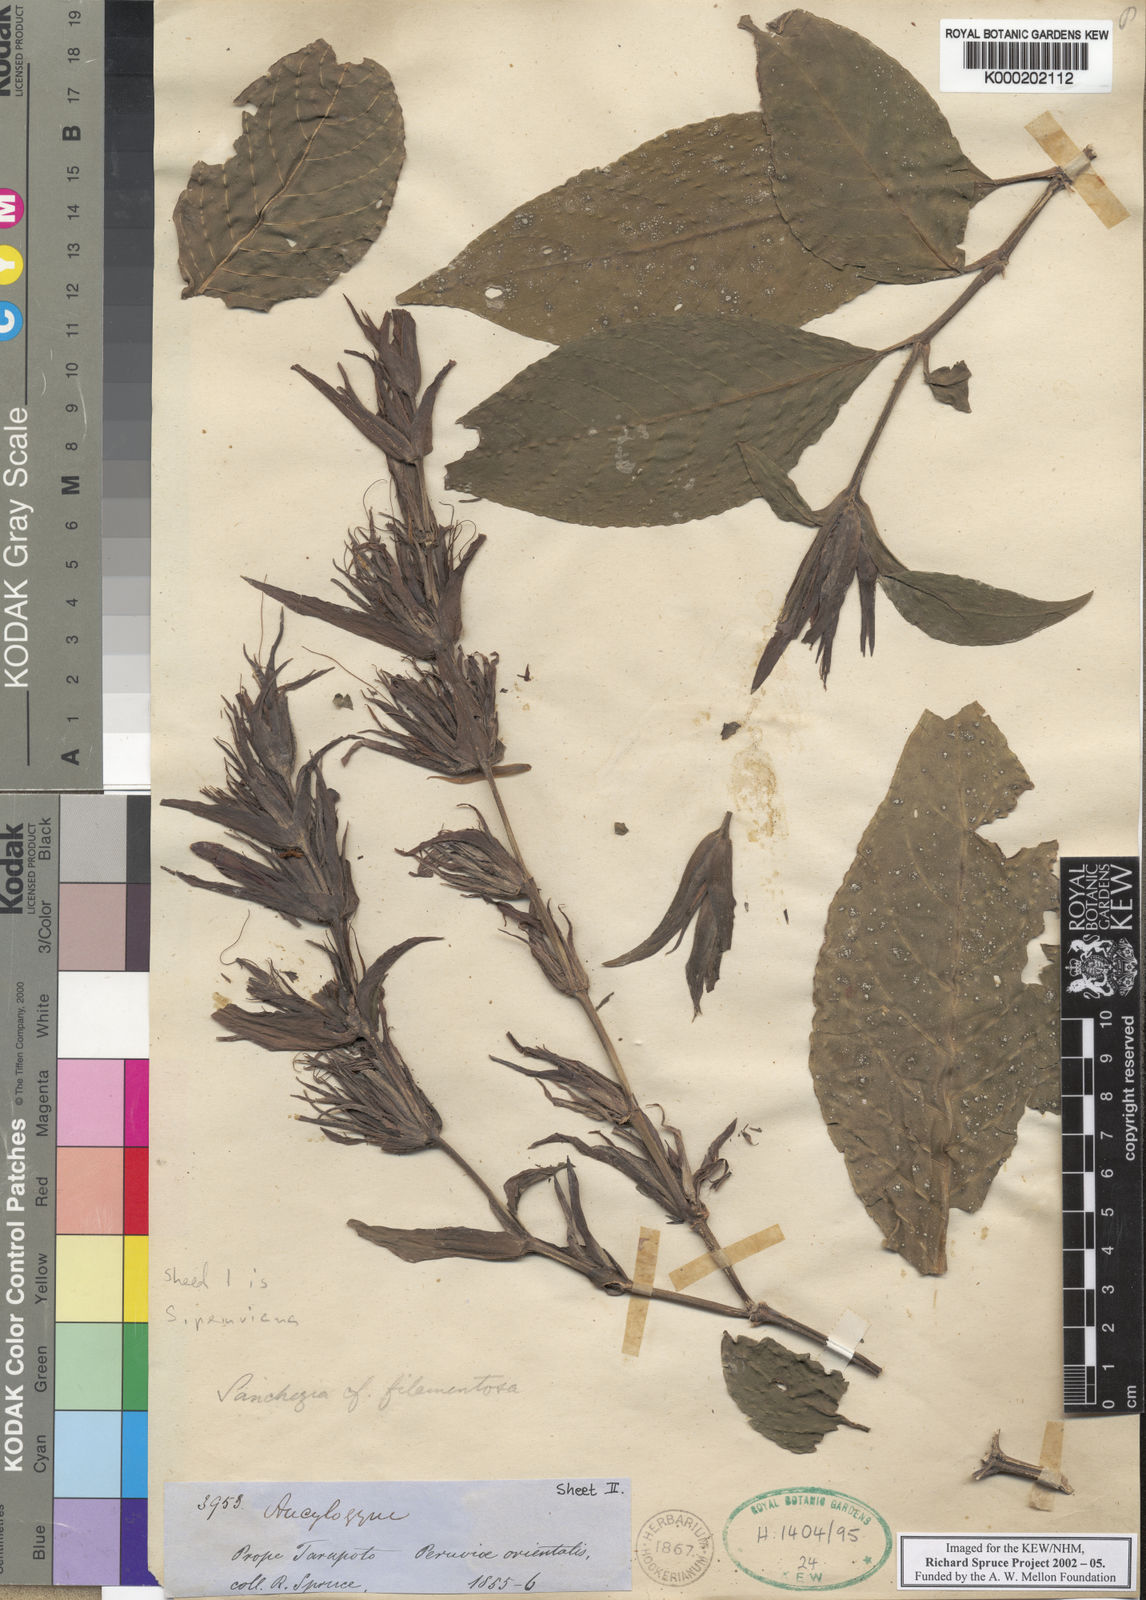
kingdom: Plantae
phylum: Tracheophyta
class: Magnoliopsida
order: Lamiales
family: Acanthaceae
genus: Sanchezia
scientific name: Sanchezia
